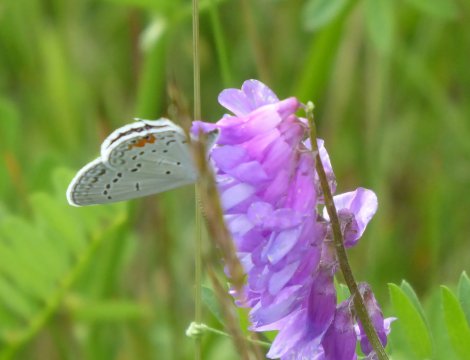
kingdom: Animalia
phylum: Arthropoda
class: Insecta
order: Lepidoptera
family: Lycaenidae
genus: Elkalyce
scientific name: Elkalyce comyntas
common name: Eastern Tailed-Blue
